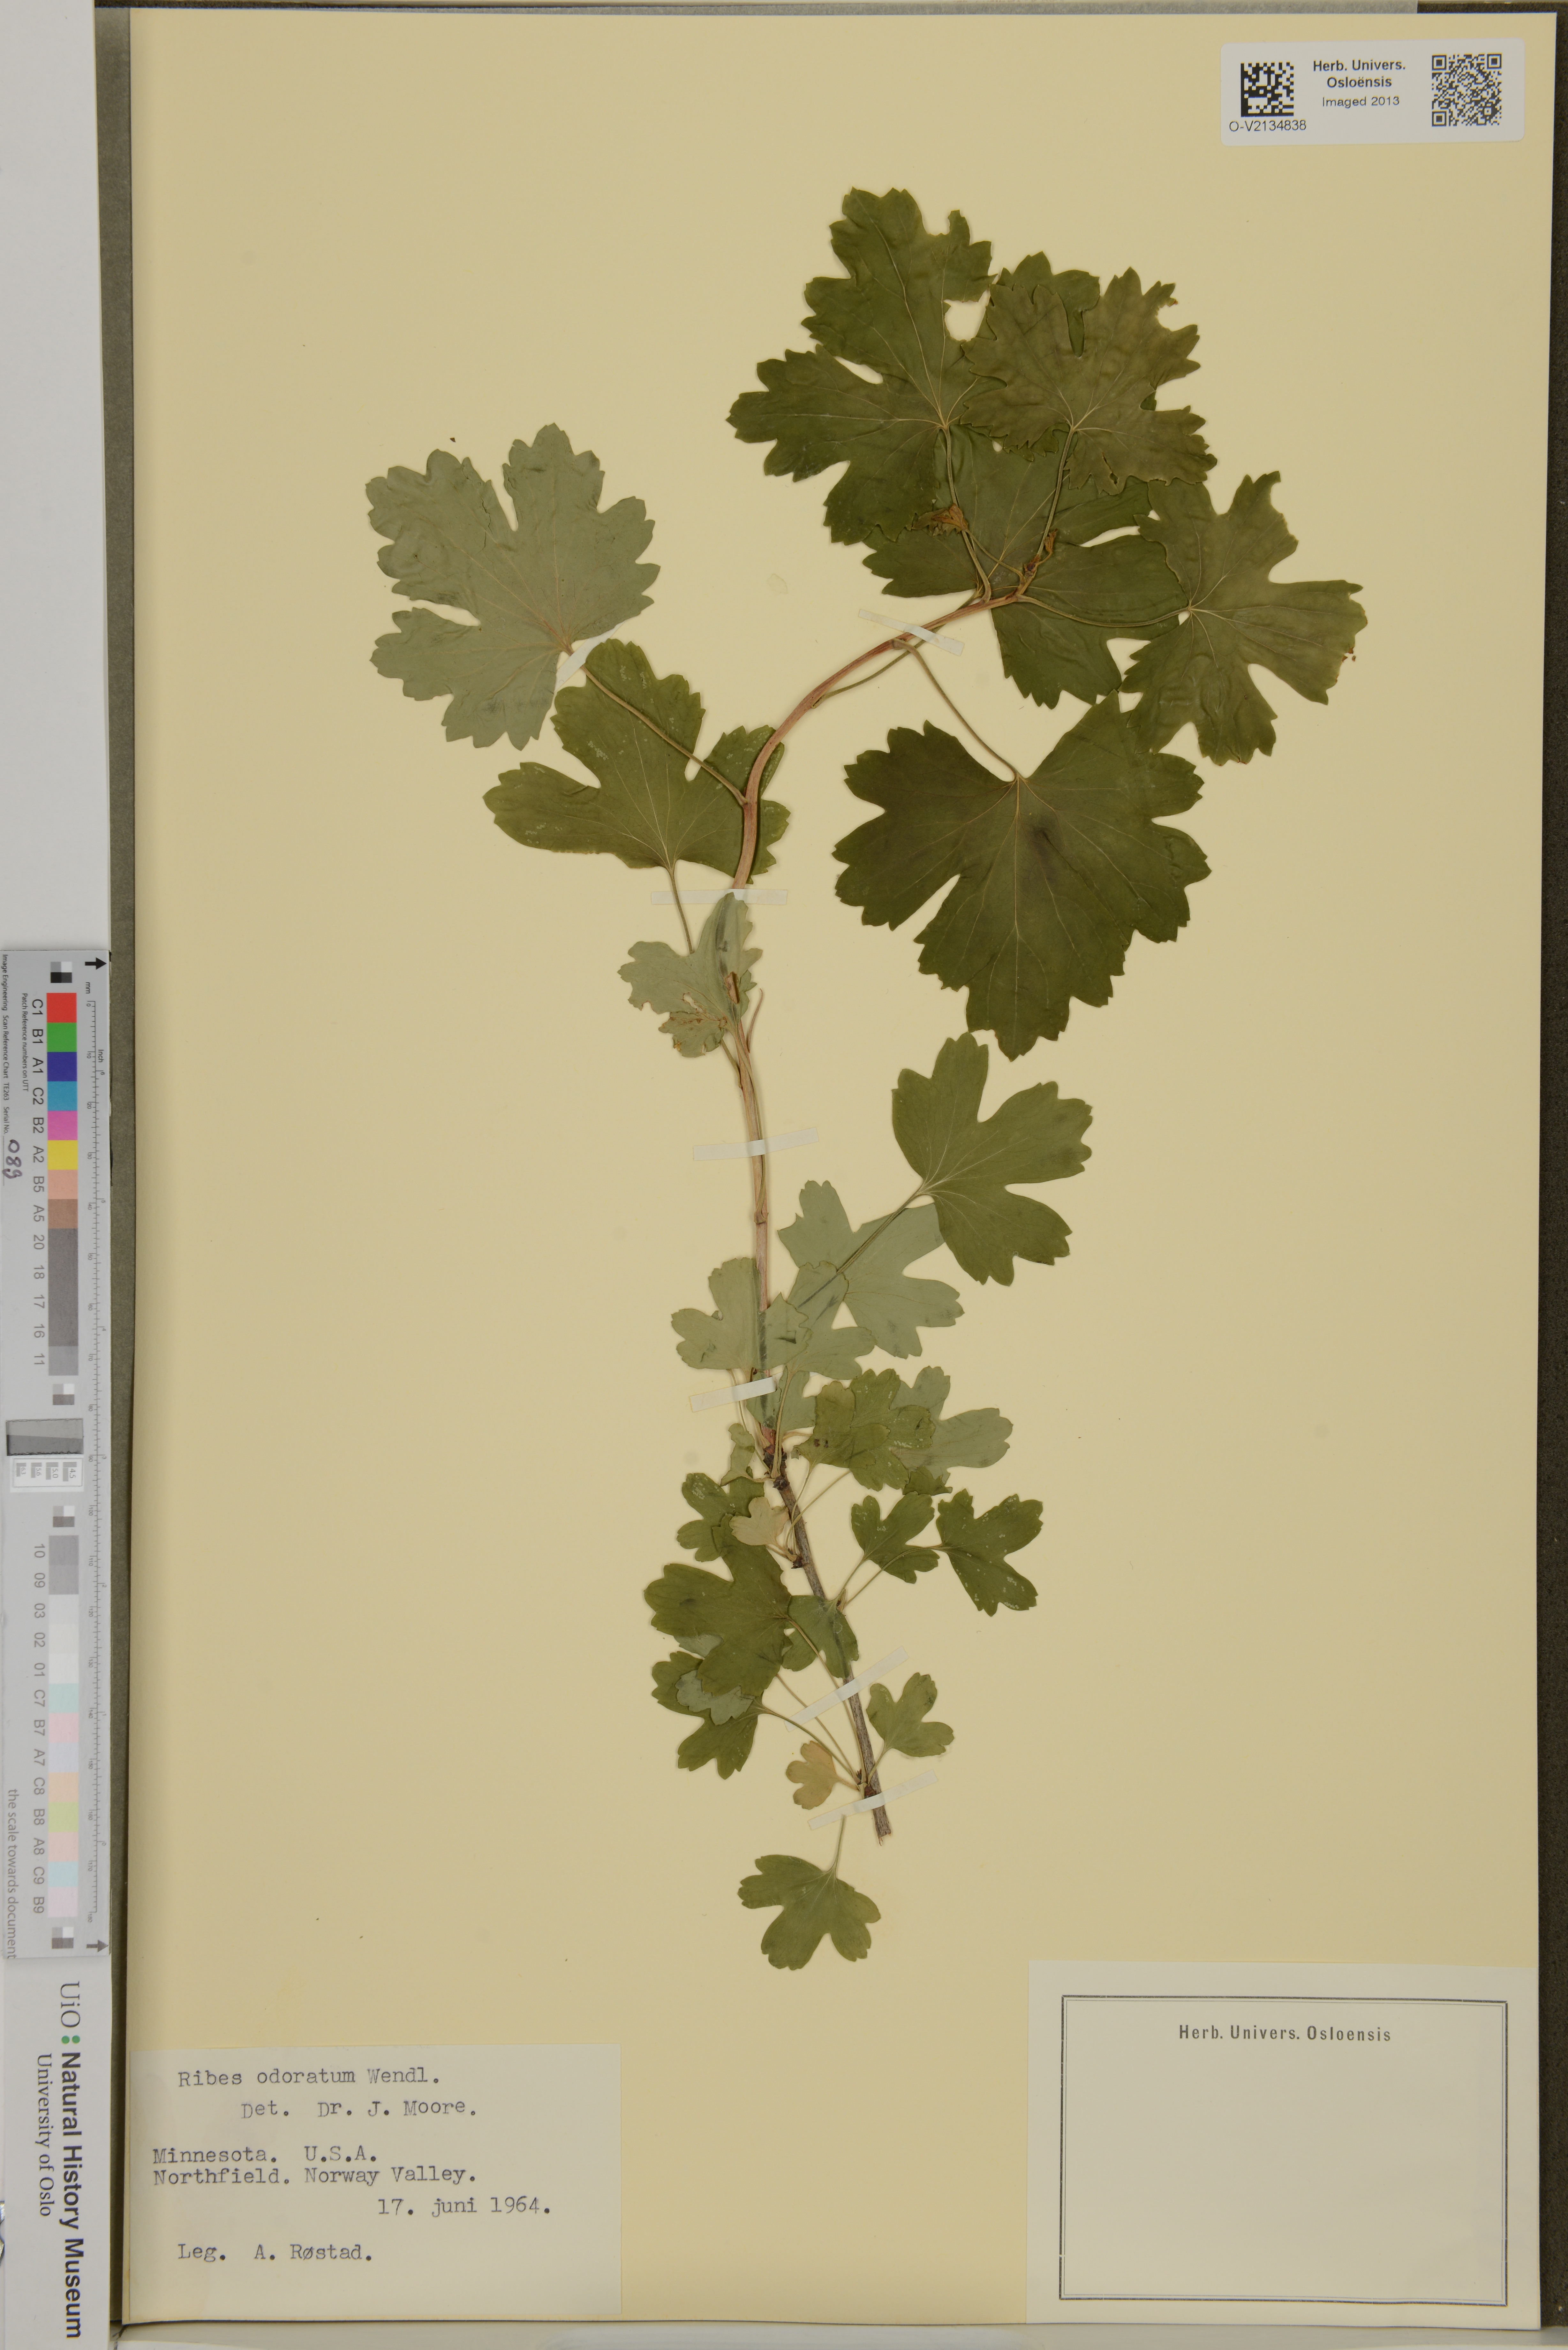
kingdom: Plantae
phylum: Tracheophyta
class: Magnoliopsida
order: Saxifragales
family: Grossulariaceae
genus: Ribes
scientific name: Ribes aureum
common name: Golden currant
